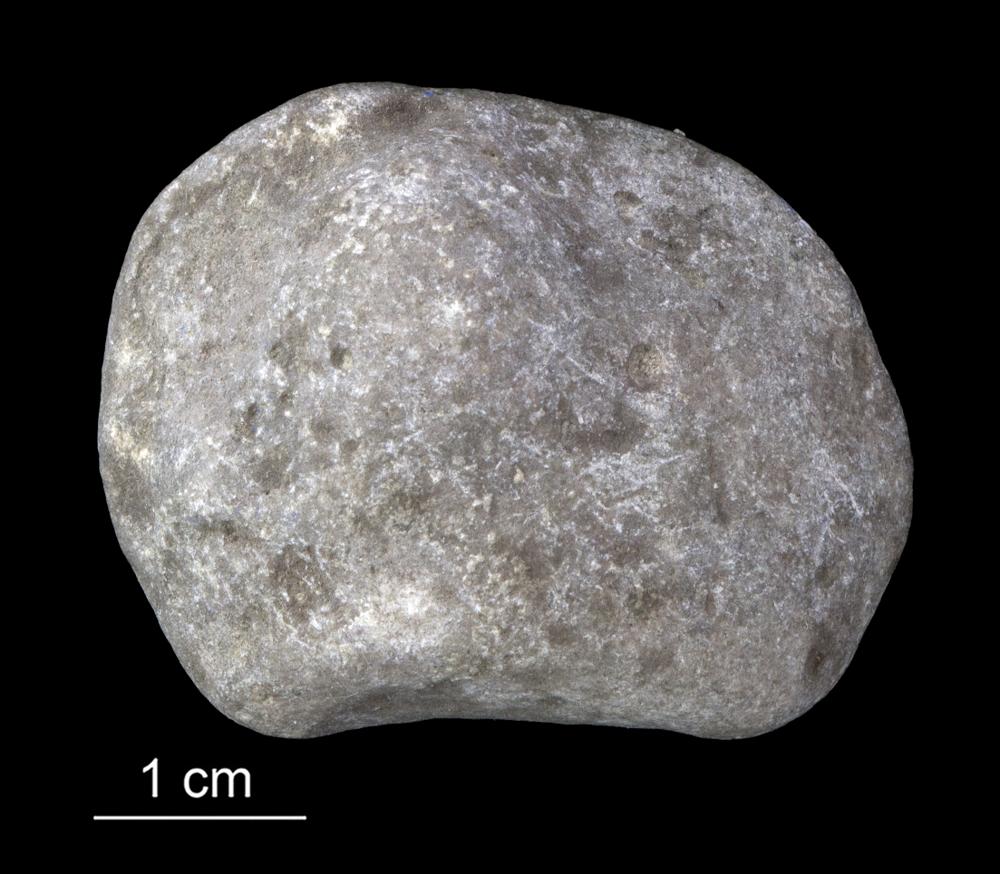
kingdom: Animalia
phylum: Porifera
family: Stromatoporidae
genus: Stromatopora
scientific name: Stromatopora
